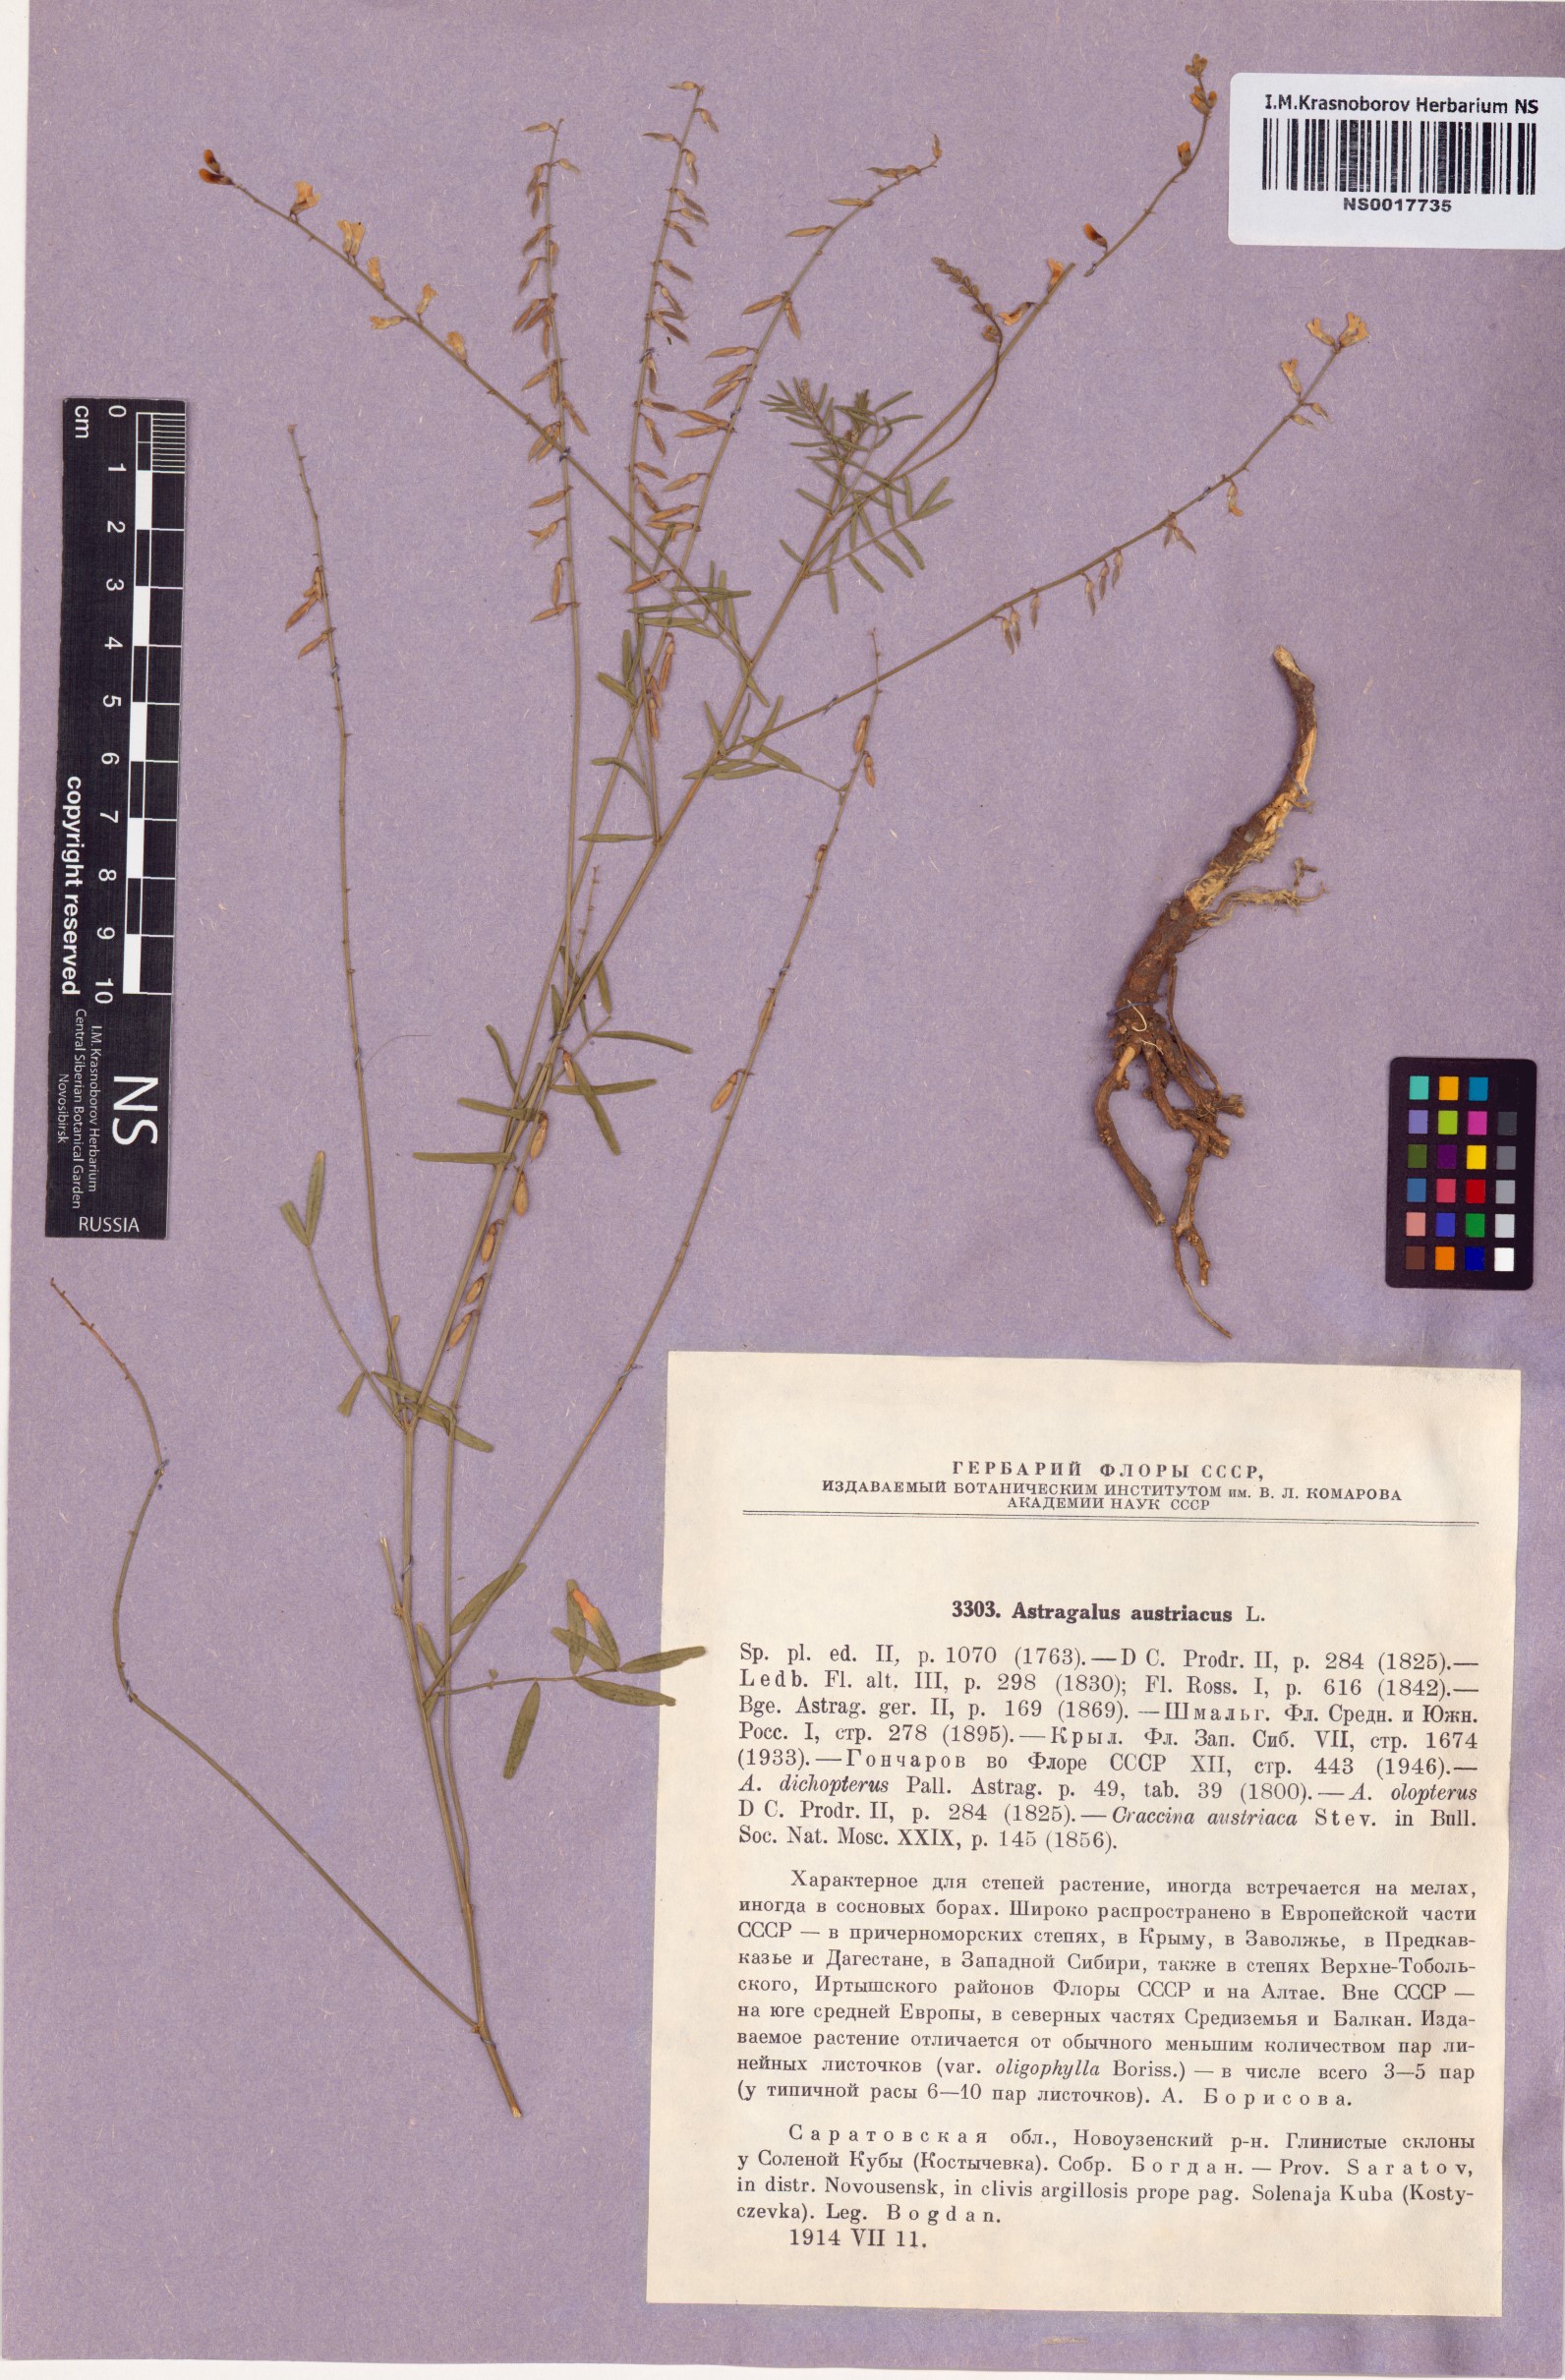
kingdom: Plantae
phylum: Tracheophyta
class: Magnoliopsida
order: Fabales
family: Fabaceae
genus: Astragalus
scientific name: Astragalus austriacus
